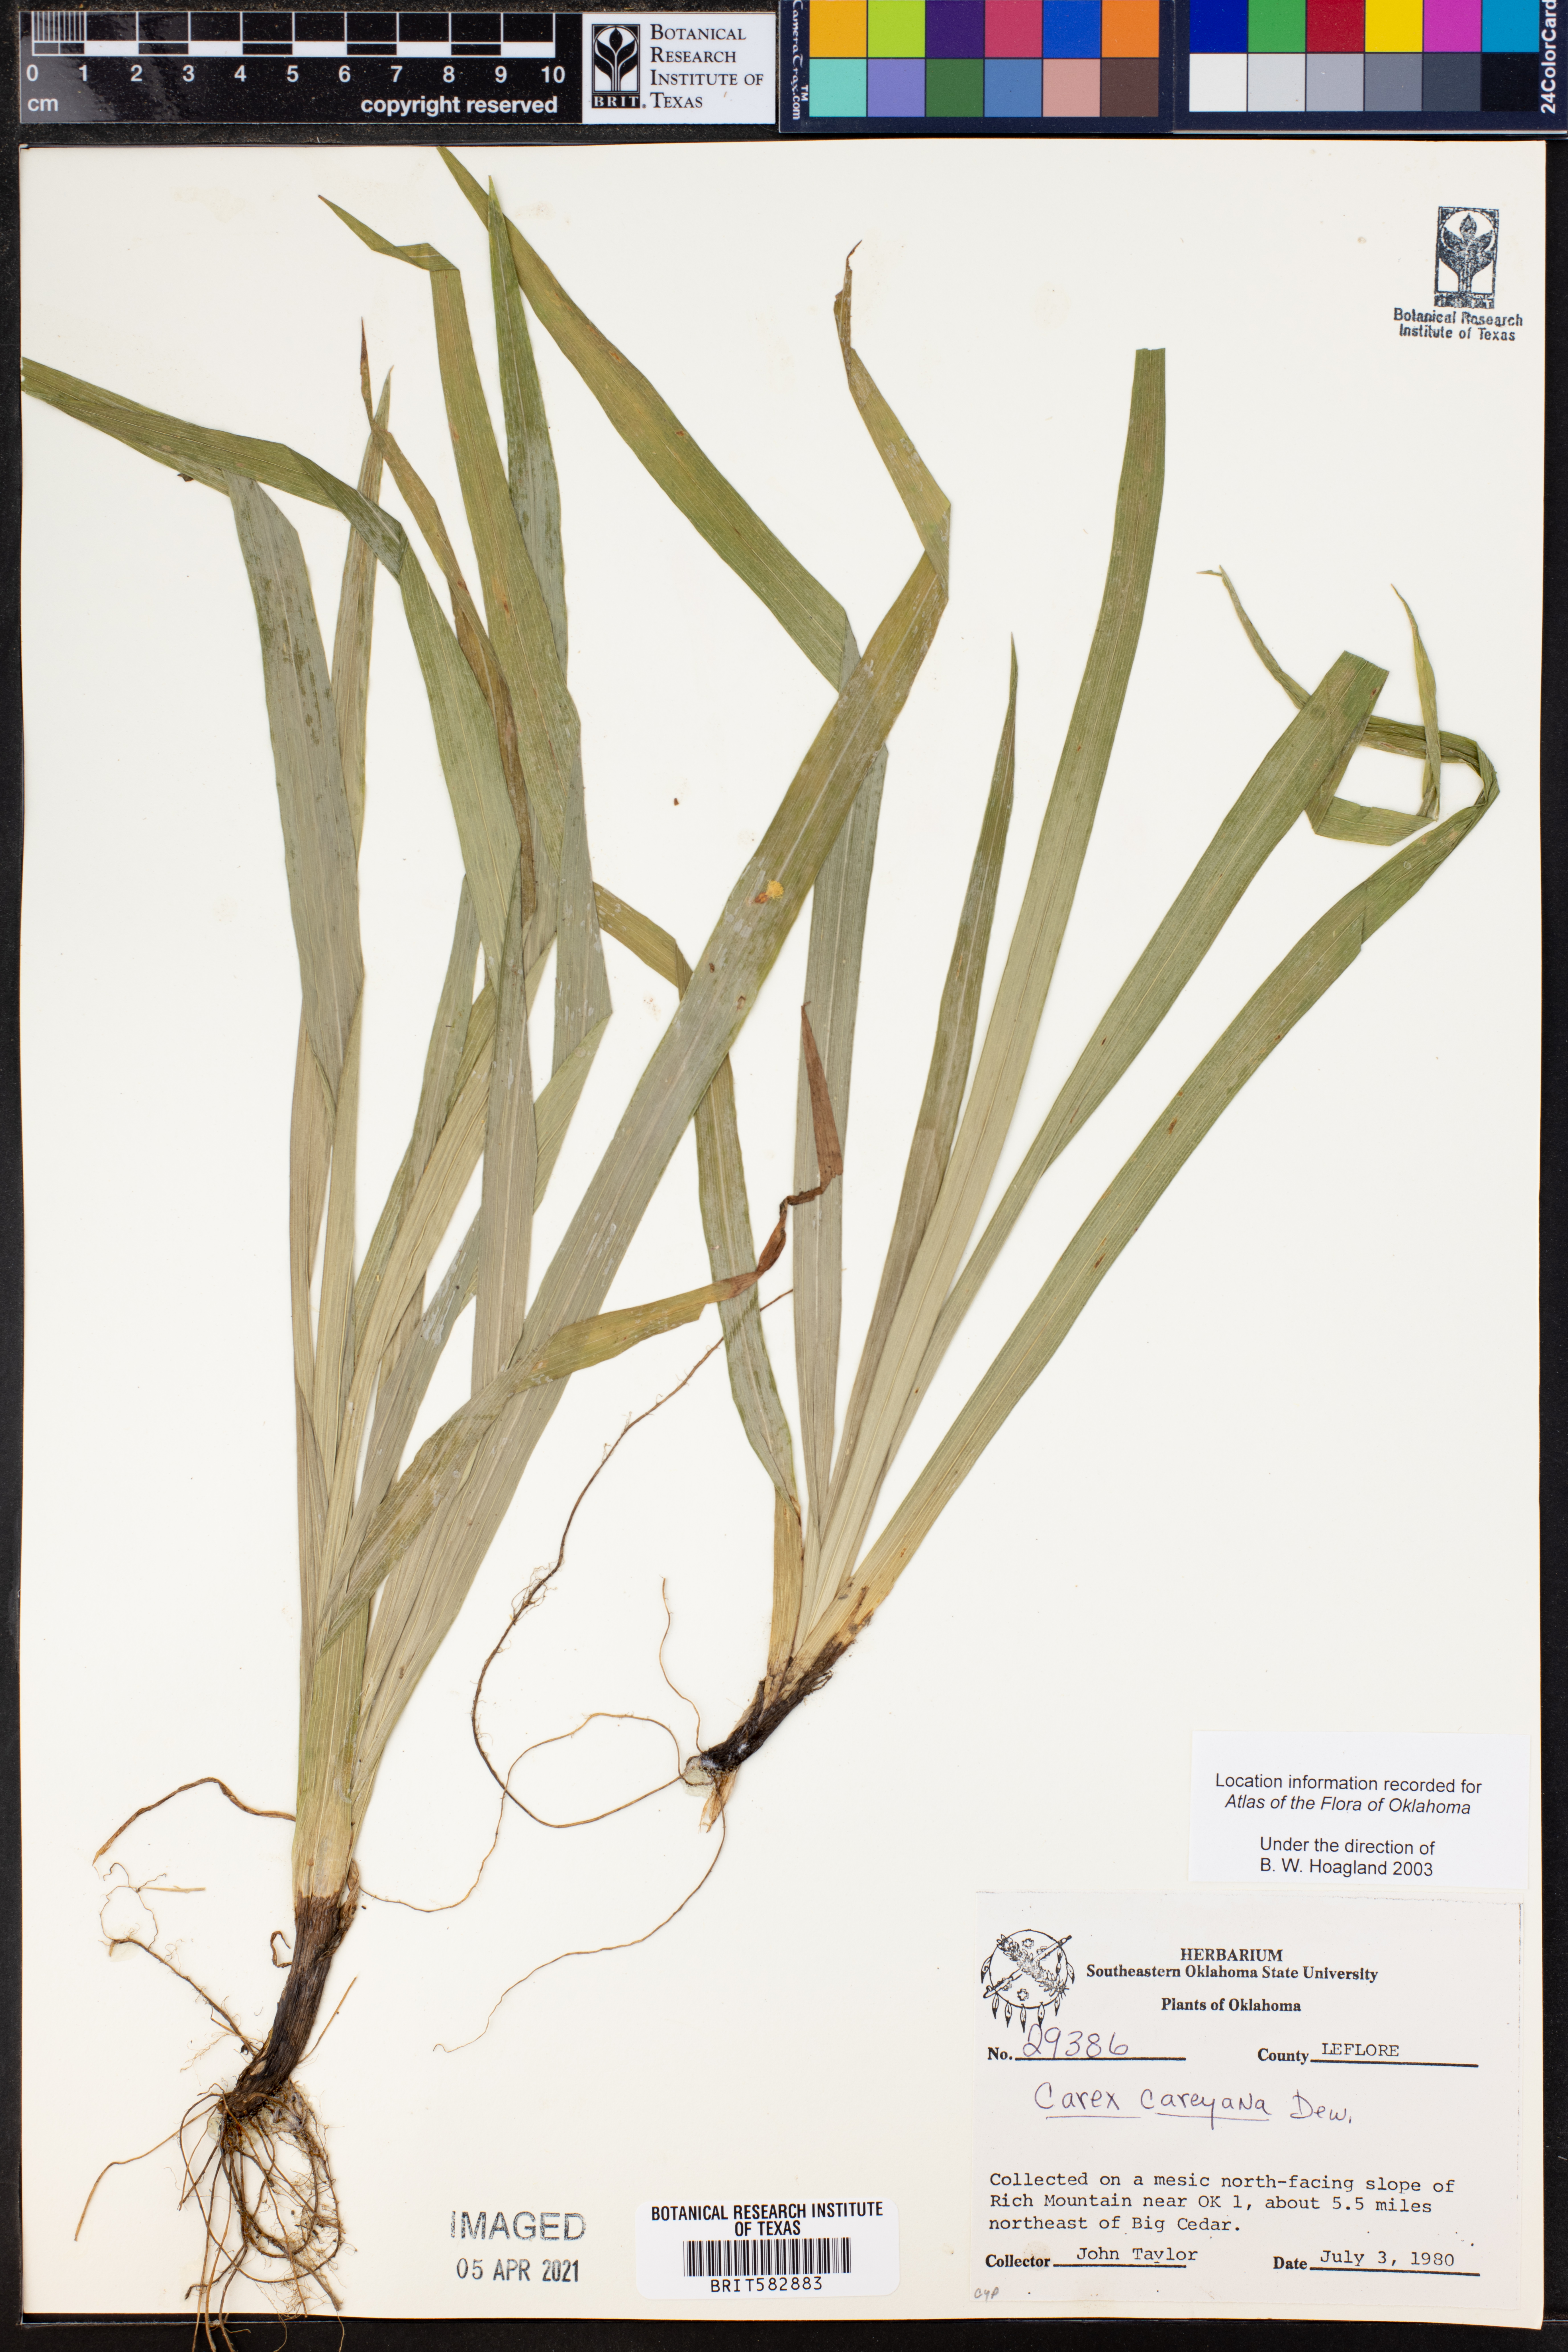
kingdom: Plantae
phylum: Tracheophyta
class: Liliopsida
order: Poales
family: Cyperaceae
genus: Carex
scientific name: Carex careyana
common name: Carey's sedge
